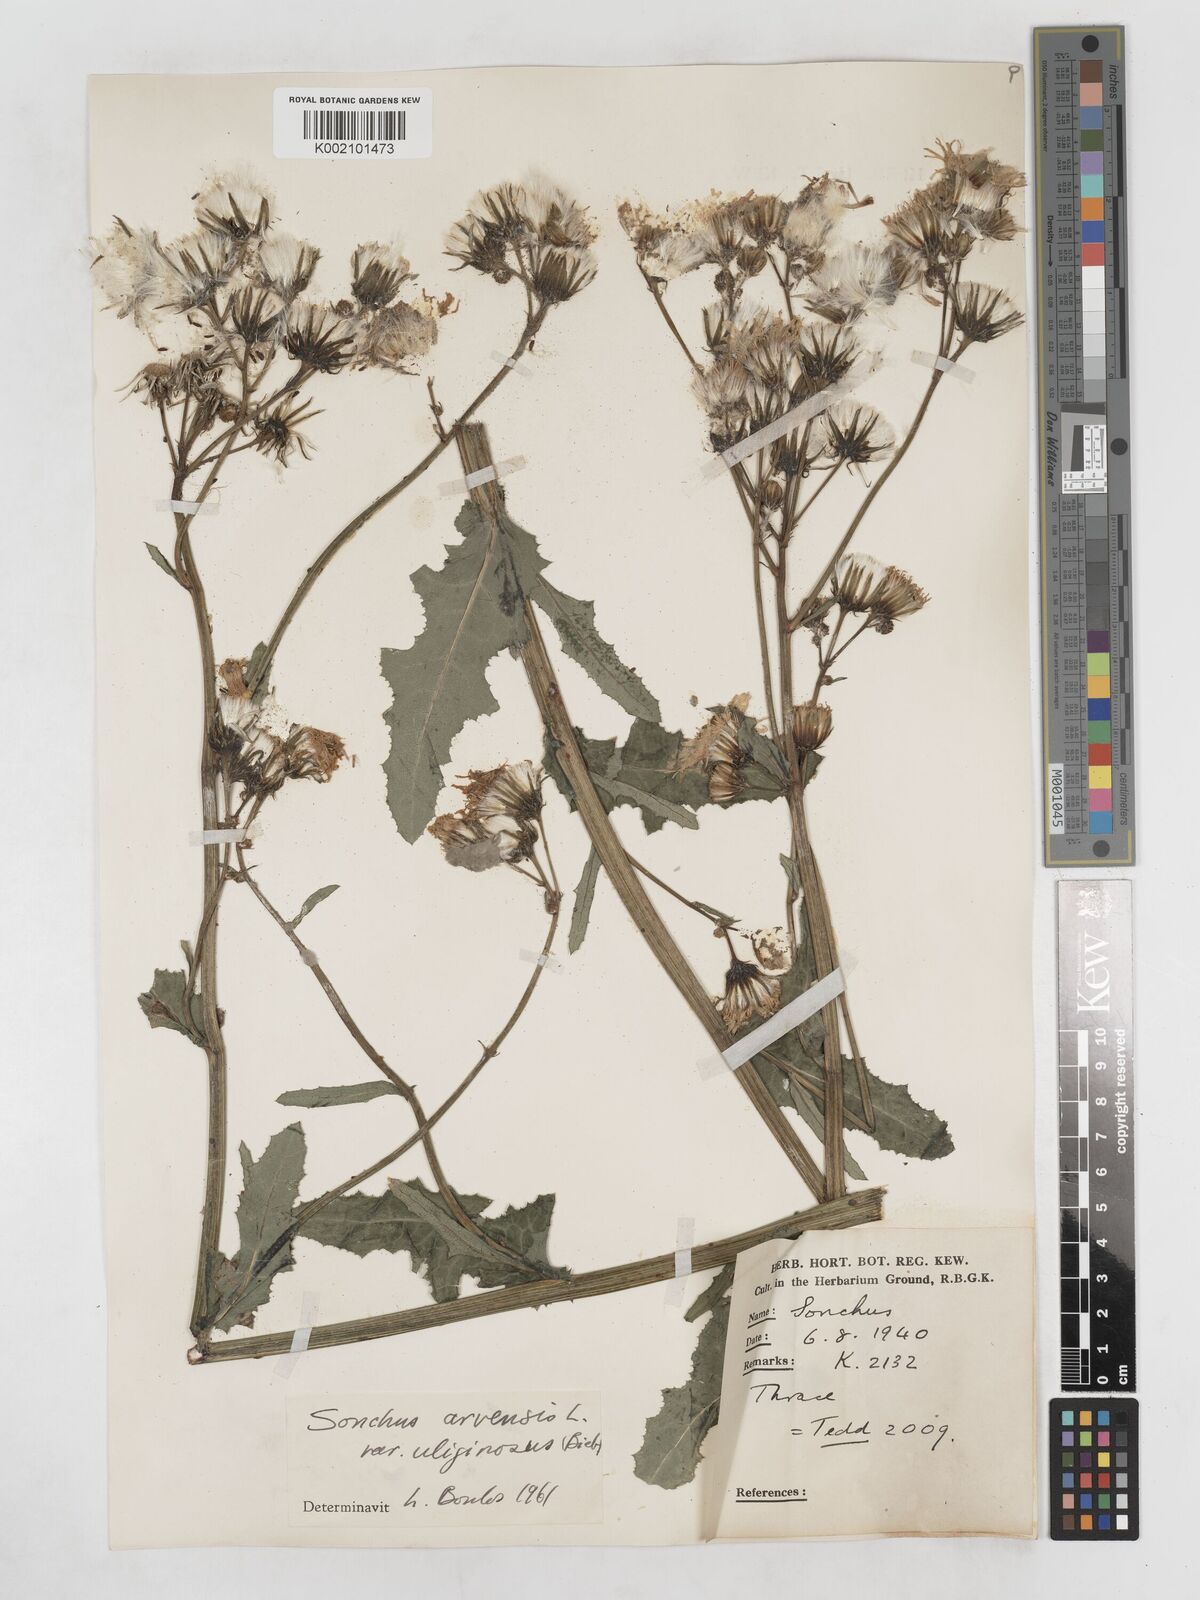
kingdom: Plantae
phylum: Tracheophyta
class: Magnoliopsida
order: Asterales
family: Asteraceae
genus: Sonchus
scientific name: Sonchus arvensis
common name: Perennial sow-thistle
